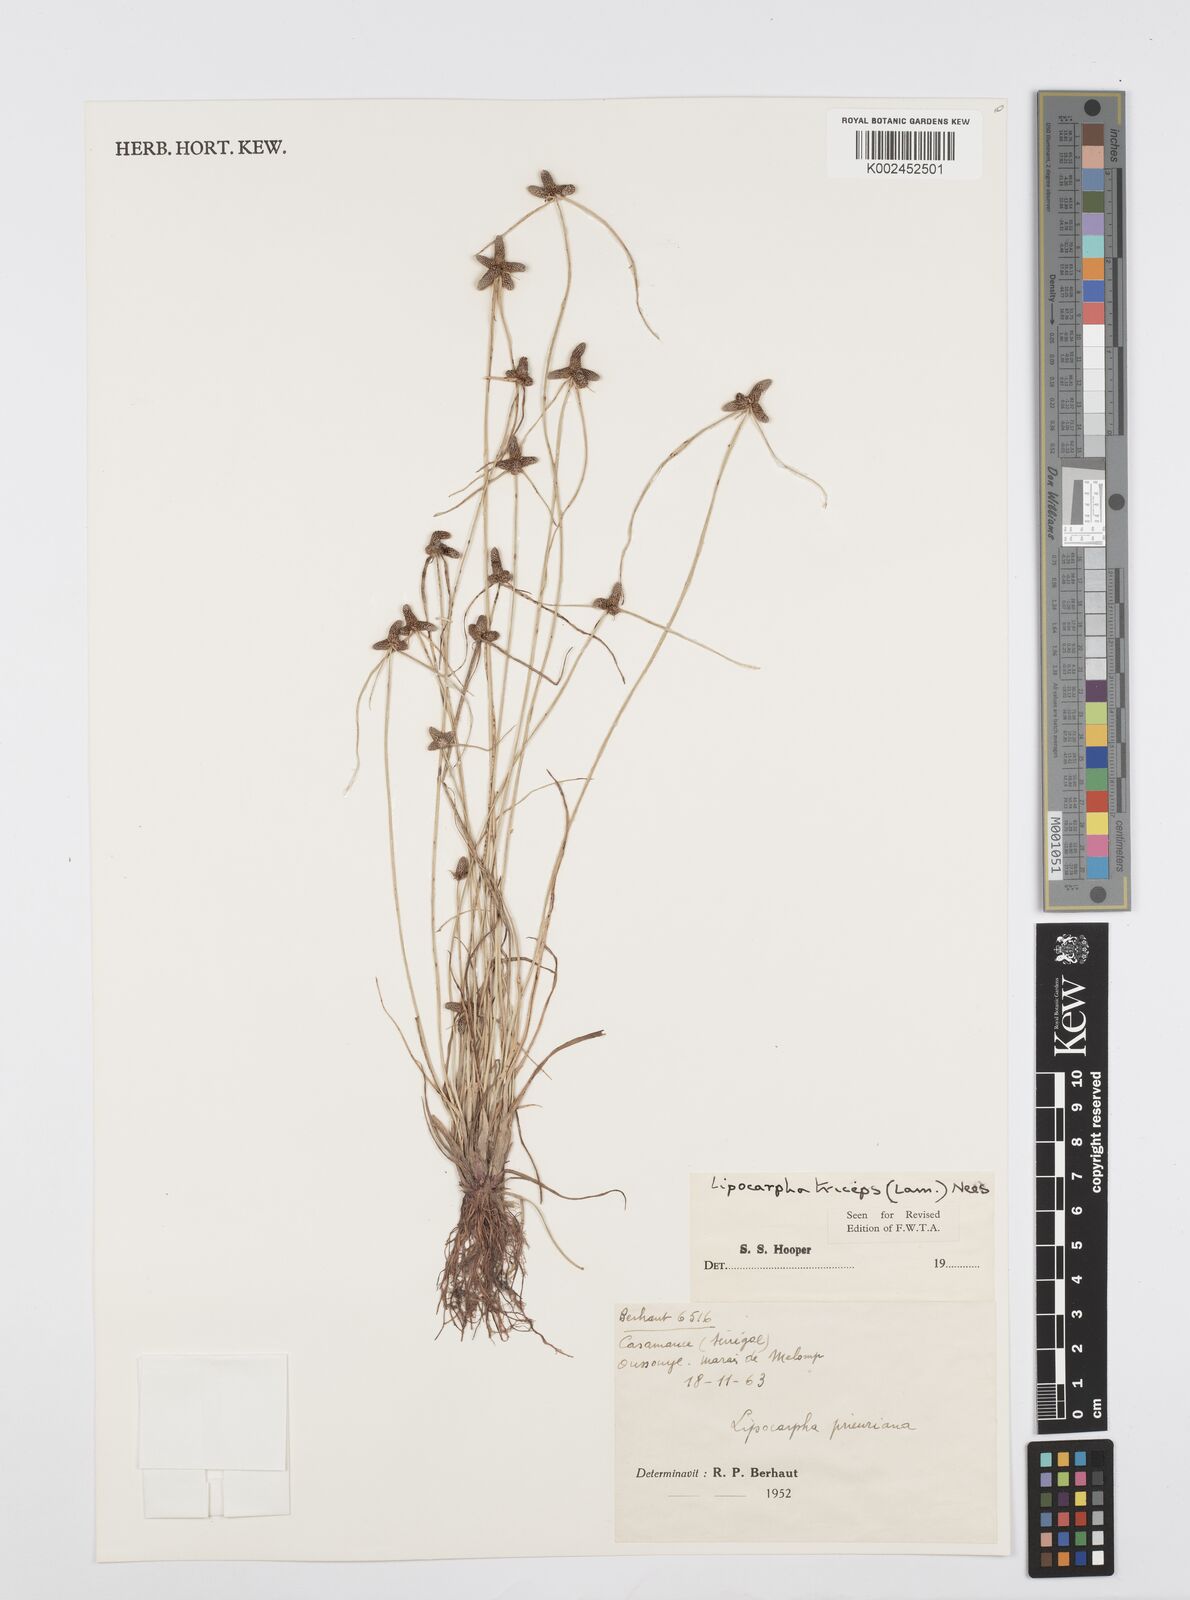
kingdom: Plantae
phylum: Tracheophyta
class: Liliopsida
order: Poales
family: Cyperaceae
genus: Cyperus
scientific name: Cyperus filiformis
